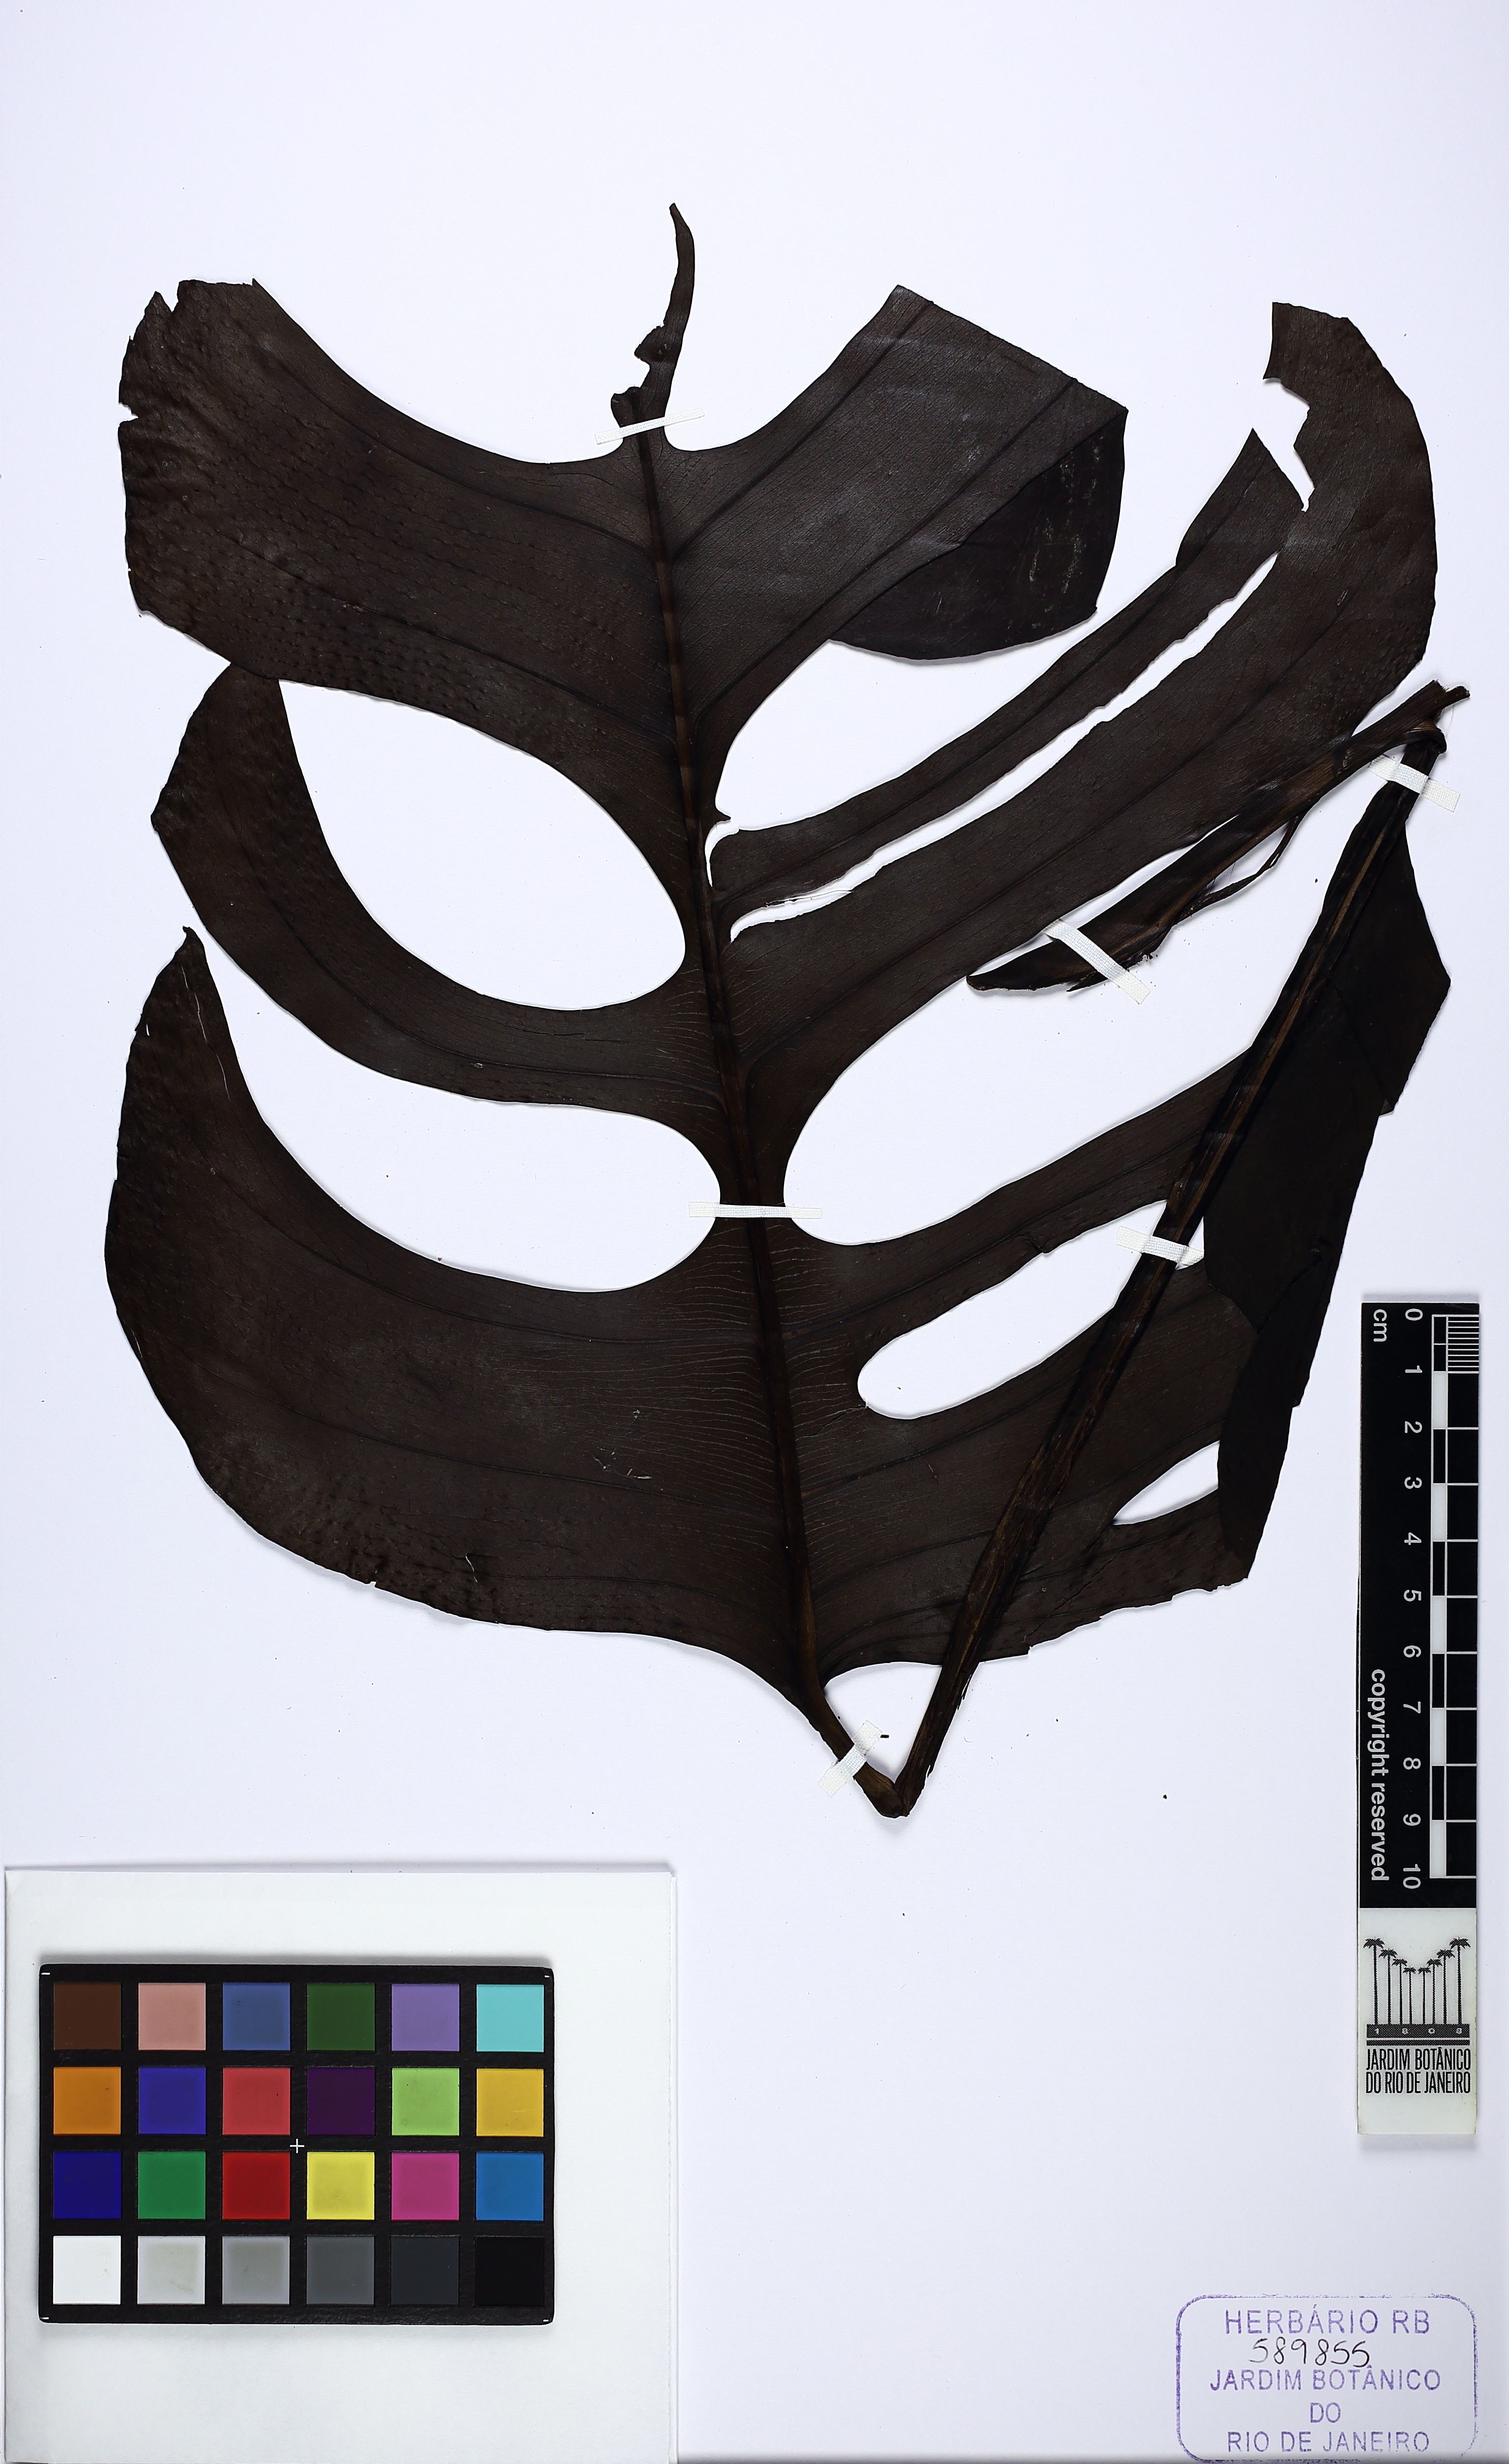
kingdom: Plantae
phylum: Tracheophyta
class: Liliopsida
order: Alismatales
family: Araceae
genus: Monstera
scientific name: Monstera praetermissa
